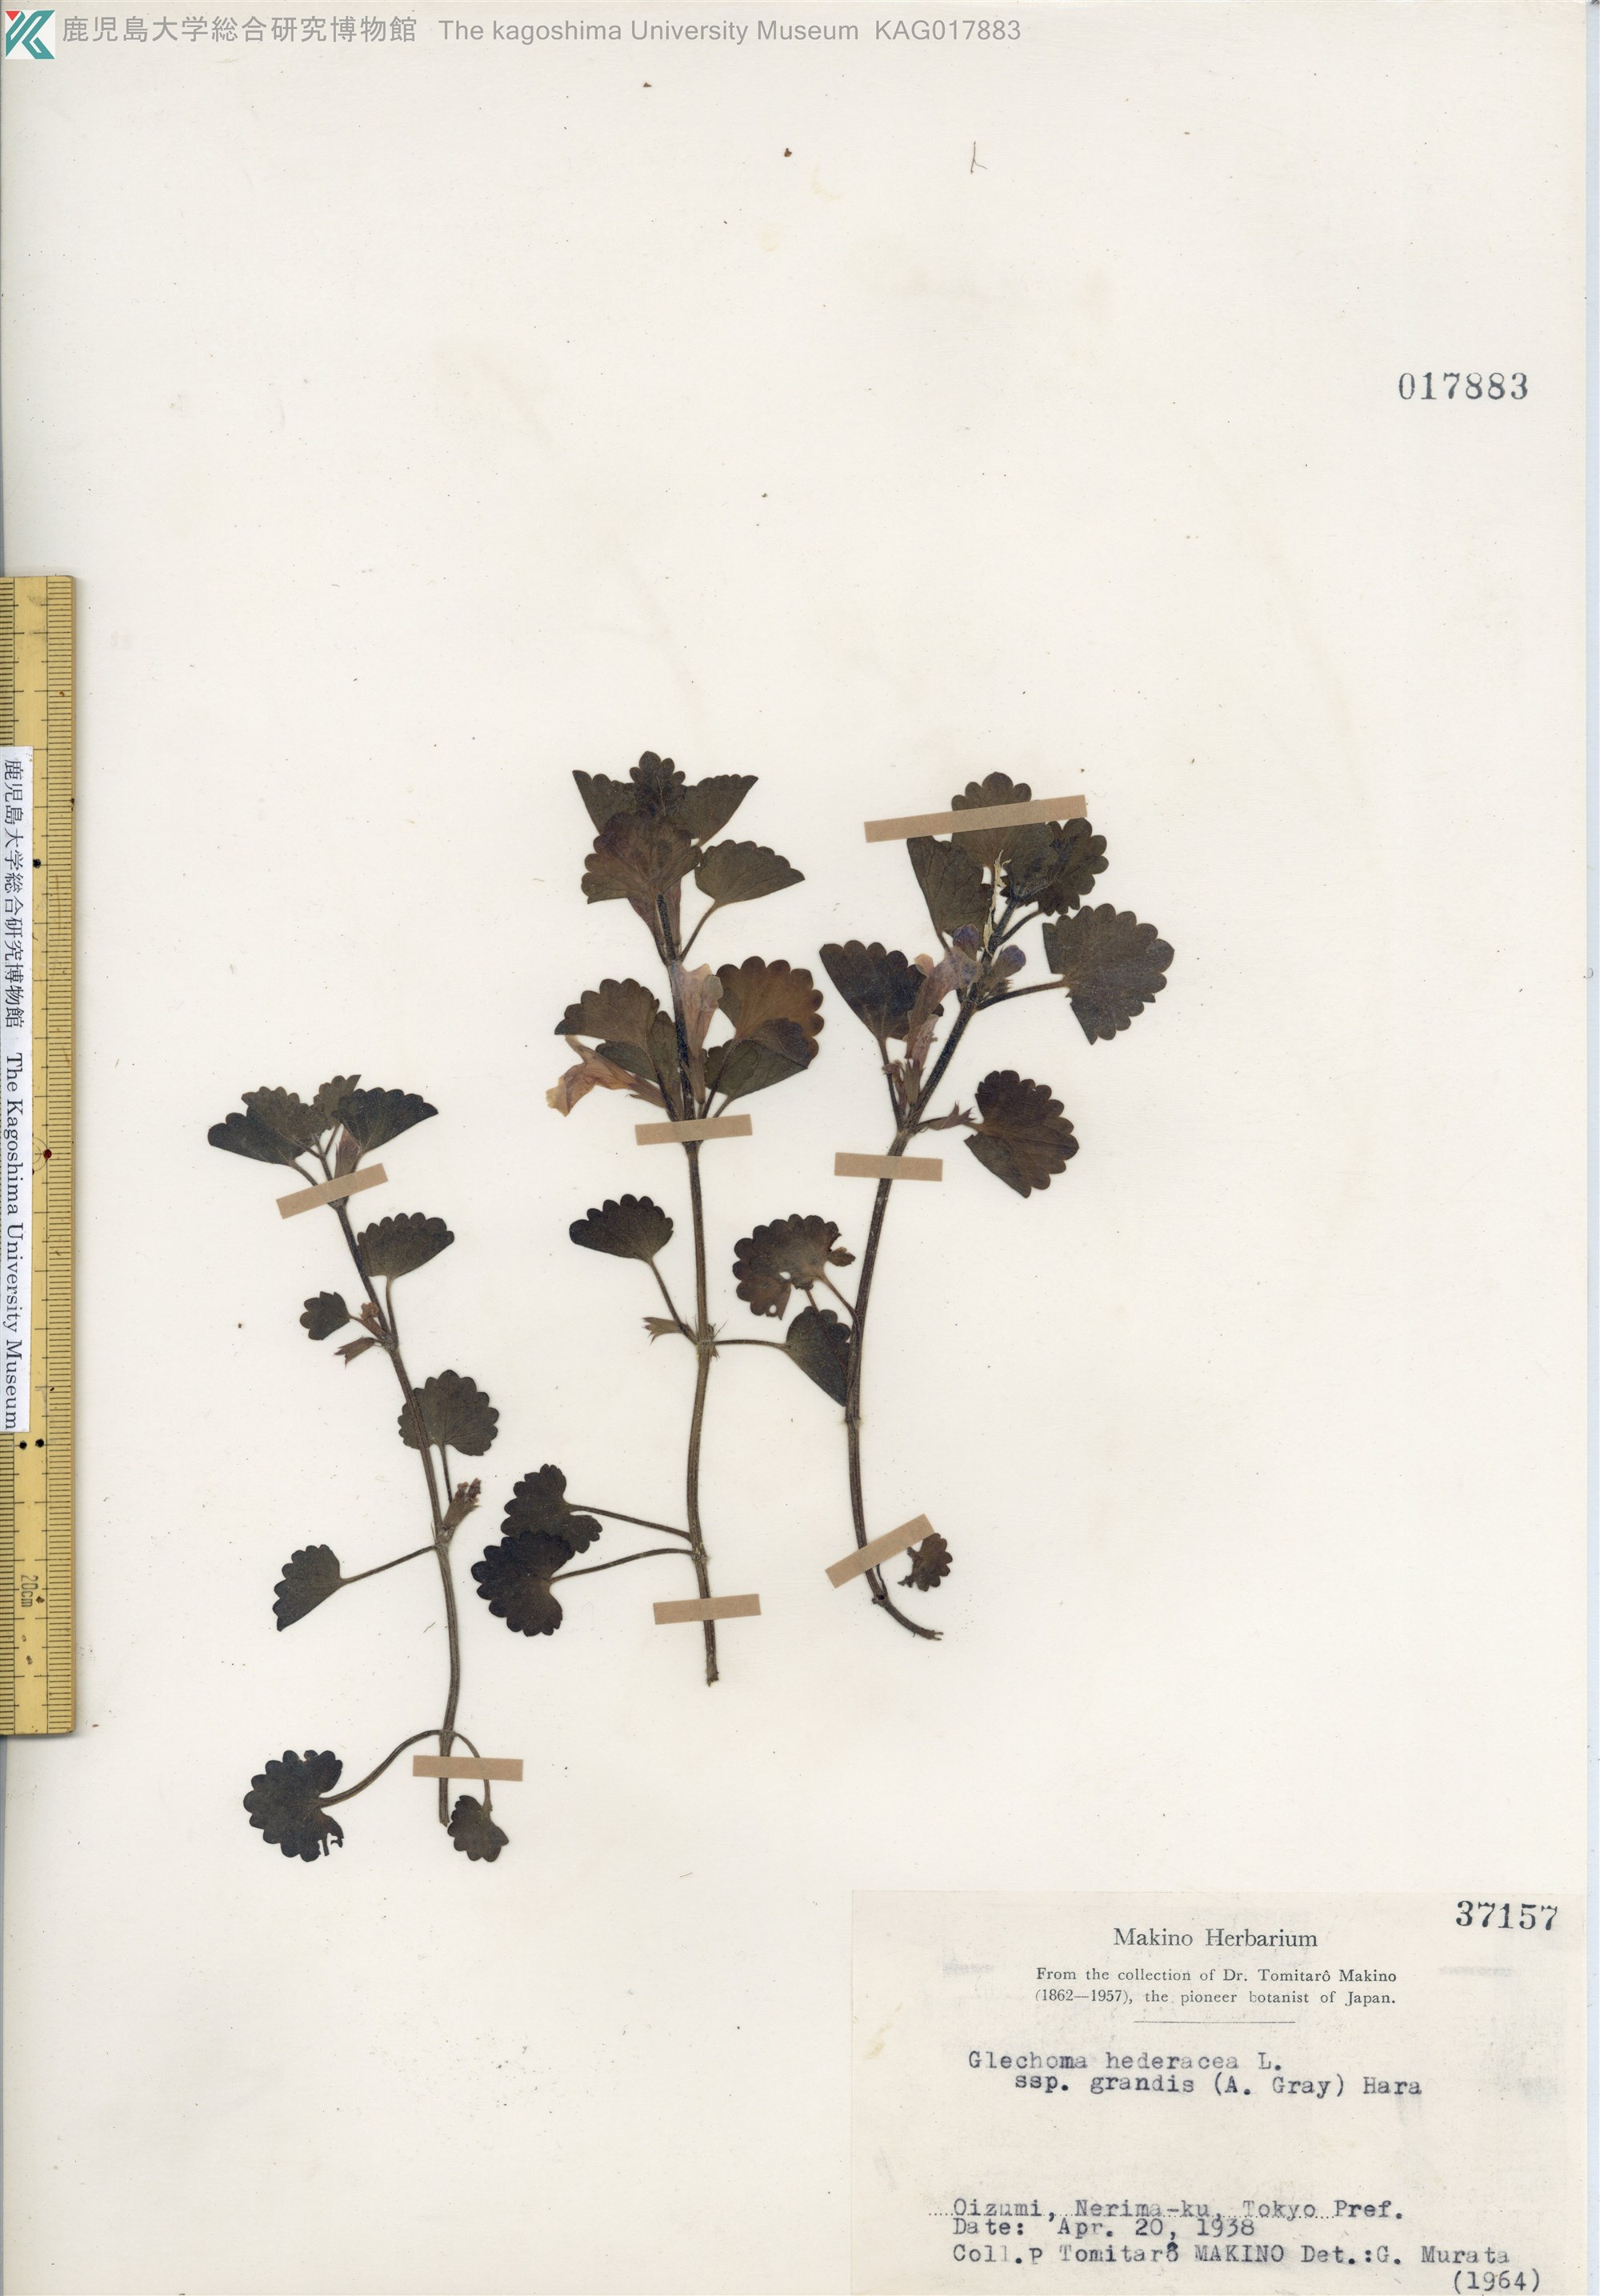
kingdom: Plantae
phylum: Tracheophyta
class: Magnoliopsida
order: Lamiales
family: Lamiaceae
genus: Glechoma
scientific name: Glechoma grandis
